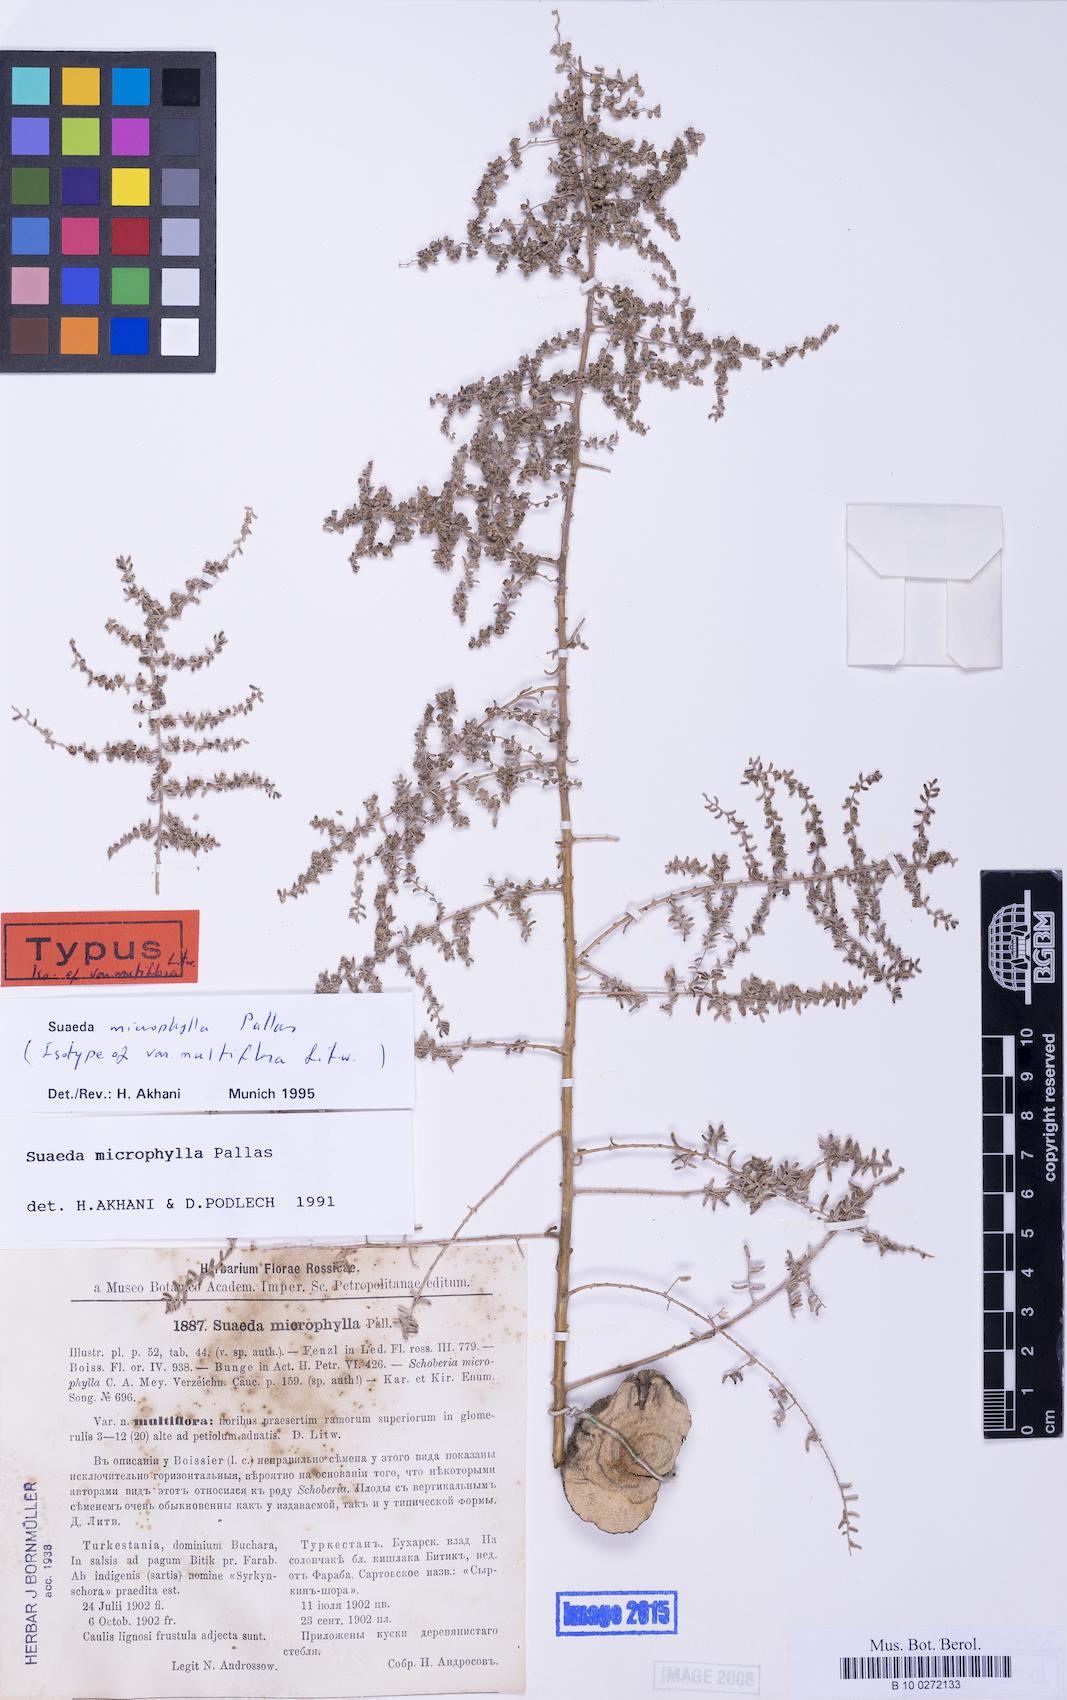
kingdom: Plantae
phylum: Tracheophyta
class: Magnoliopsida
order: Caryophyllales
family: Amaranthaceae
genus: Suaeda
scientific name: Suaeda microphylla
